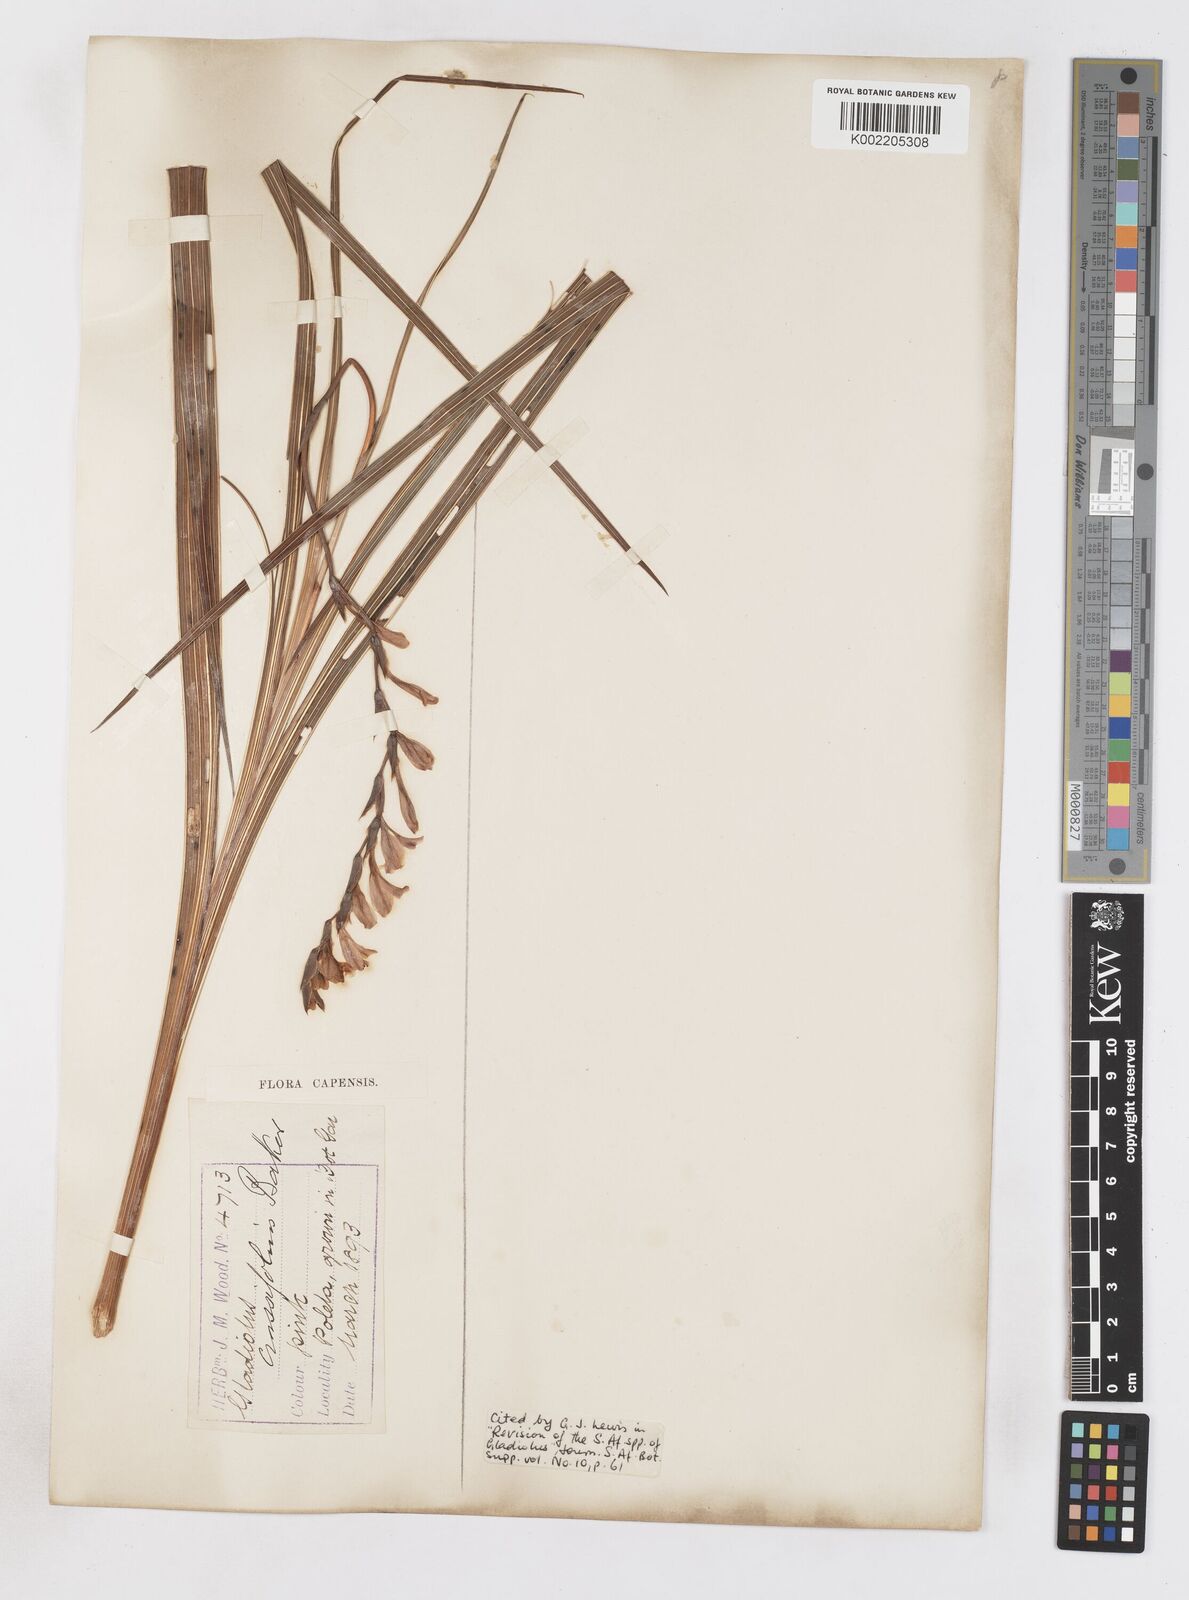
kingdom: Plantae
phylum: Tracheophyta
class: Liliopsida
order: Asparagales
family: Iridaceae
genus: Gladiolus
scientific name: Gladiolus crassifolius
